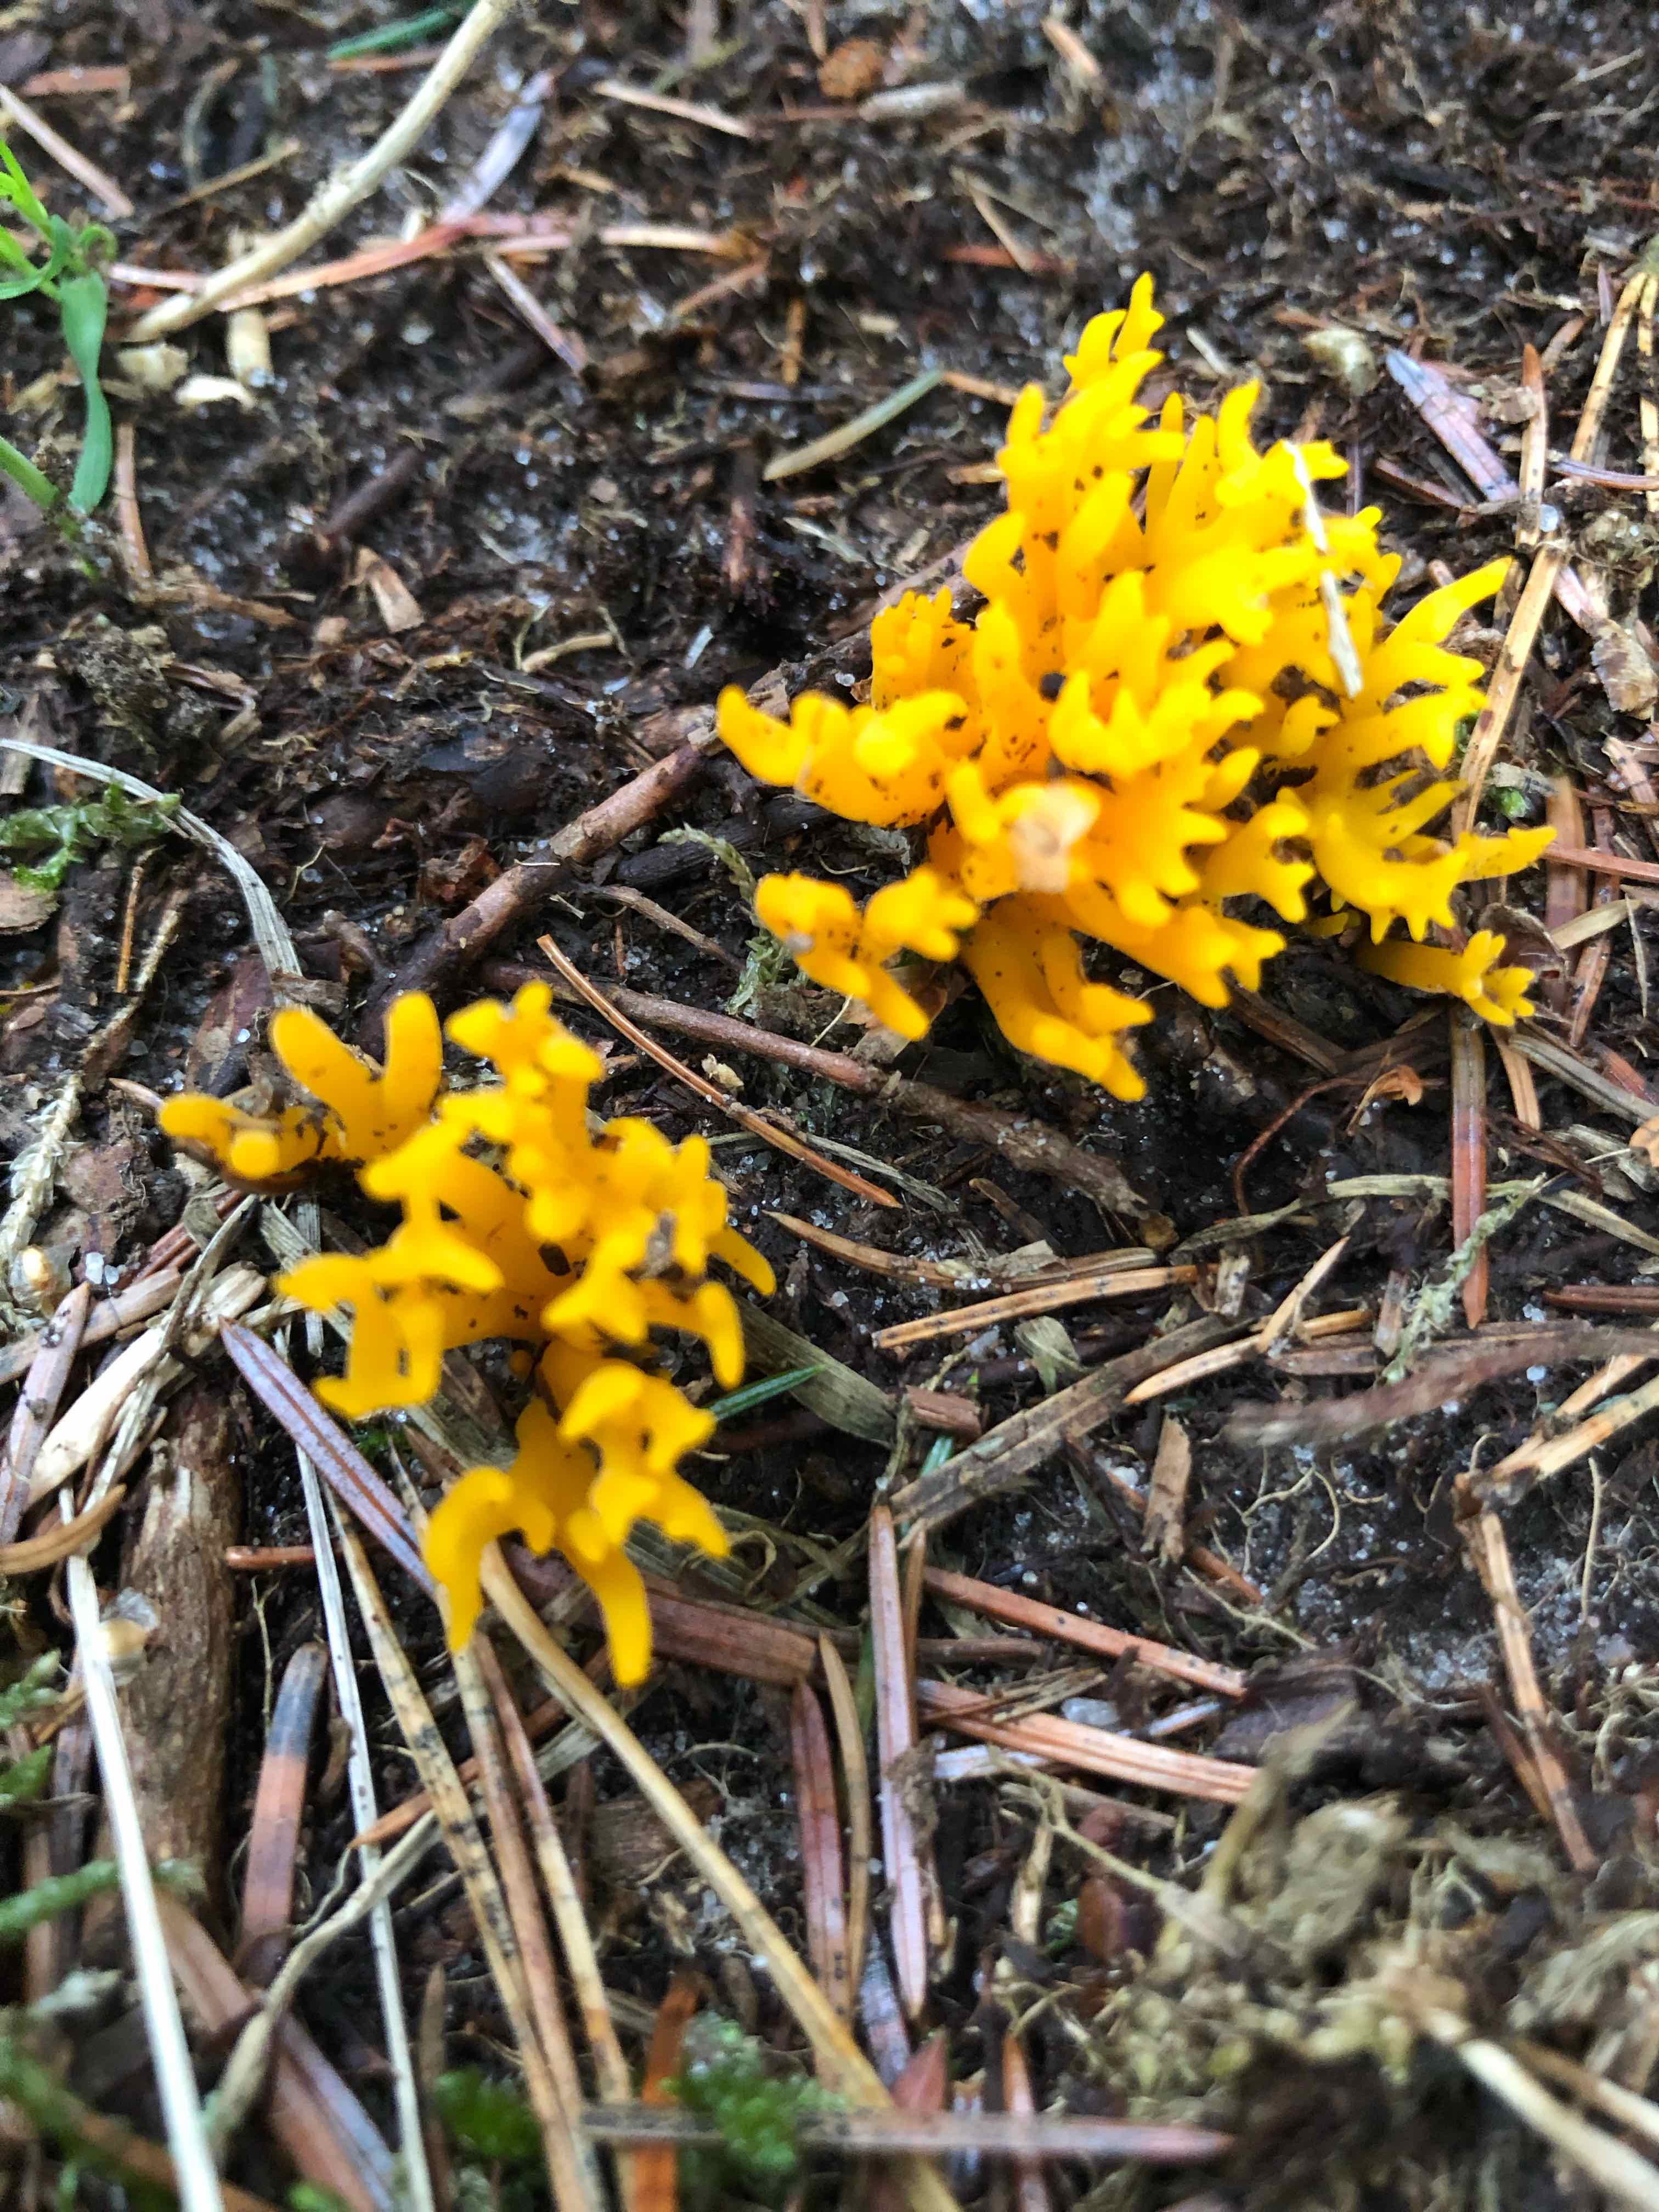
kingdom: Fungi
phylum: Basidiomycota
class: Dacrymycetes
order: Dacrymycetales
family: Dacrymycetaceae
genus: Calocera
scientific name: Calocera viscosa
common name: almindelig guldgaffel
